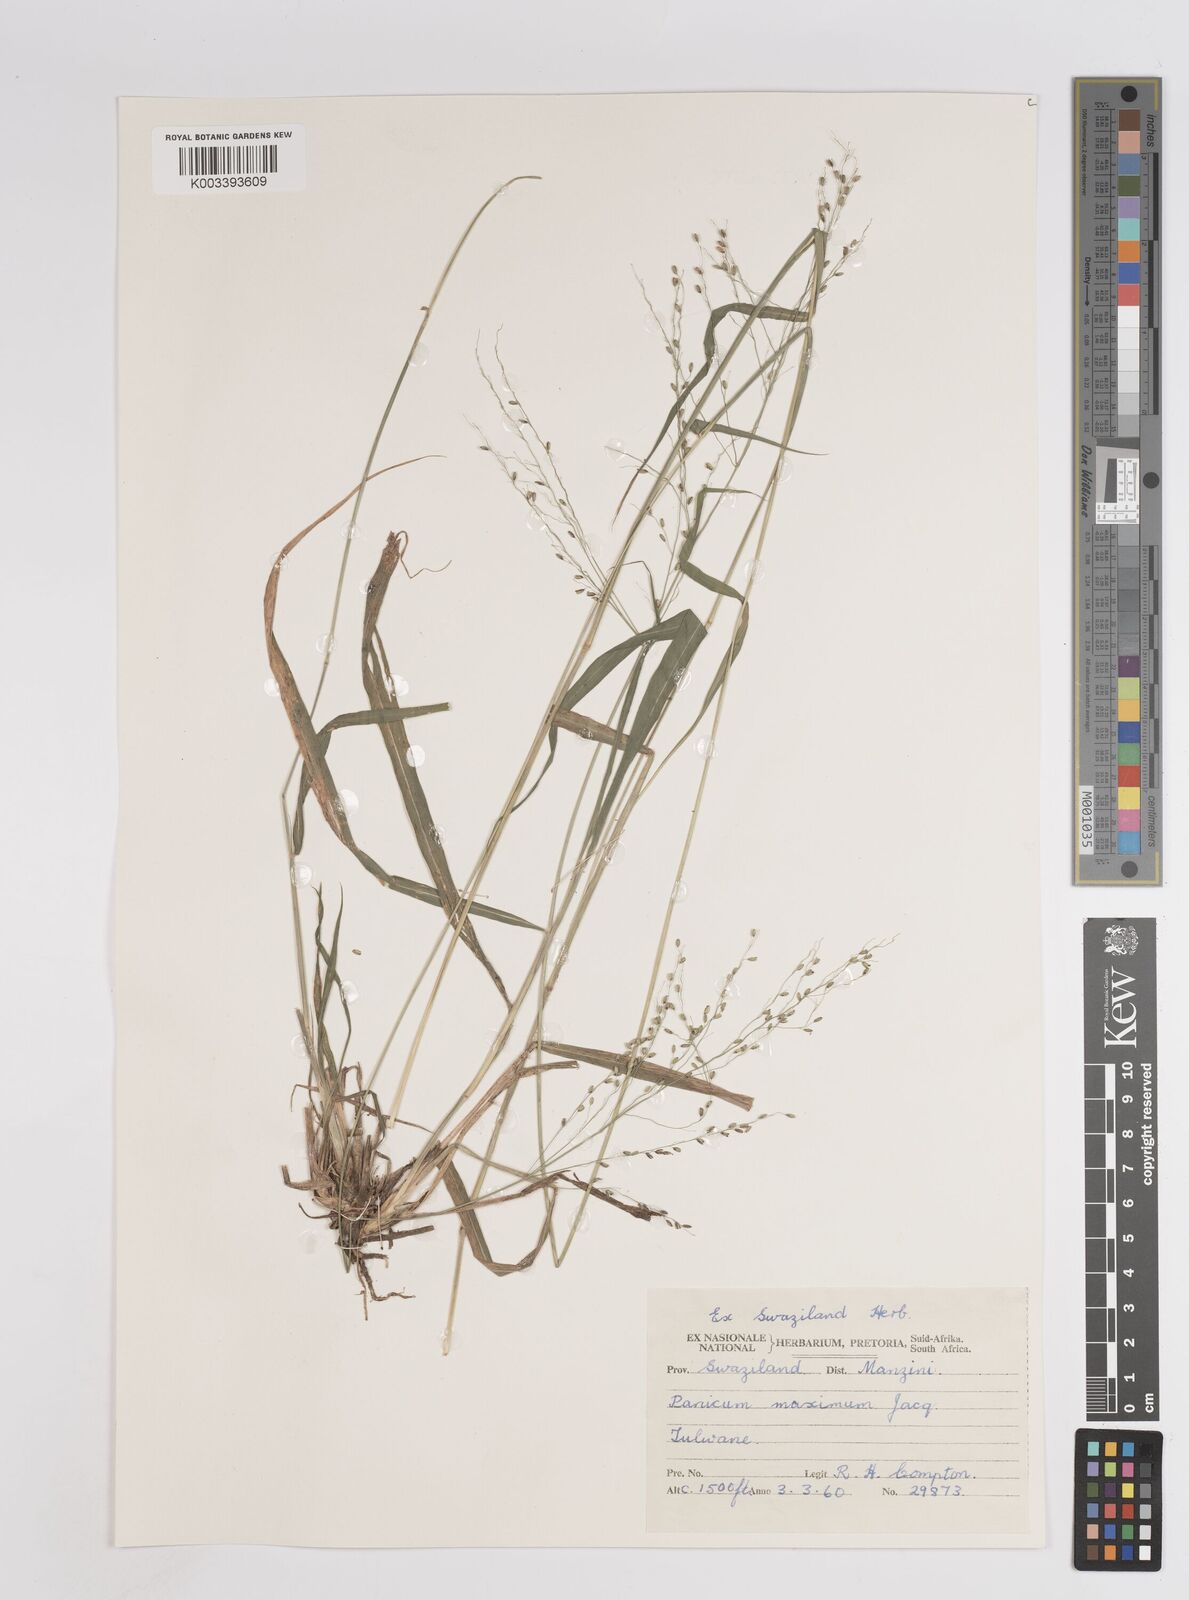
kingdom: Plantae
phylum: Tracheophyta
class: Liliopsida
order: Poales
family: Poaceae
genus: Megathyrsus
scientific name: Megathyrsus maximus
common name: Guineagrass
